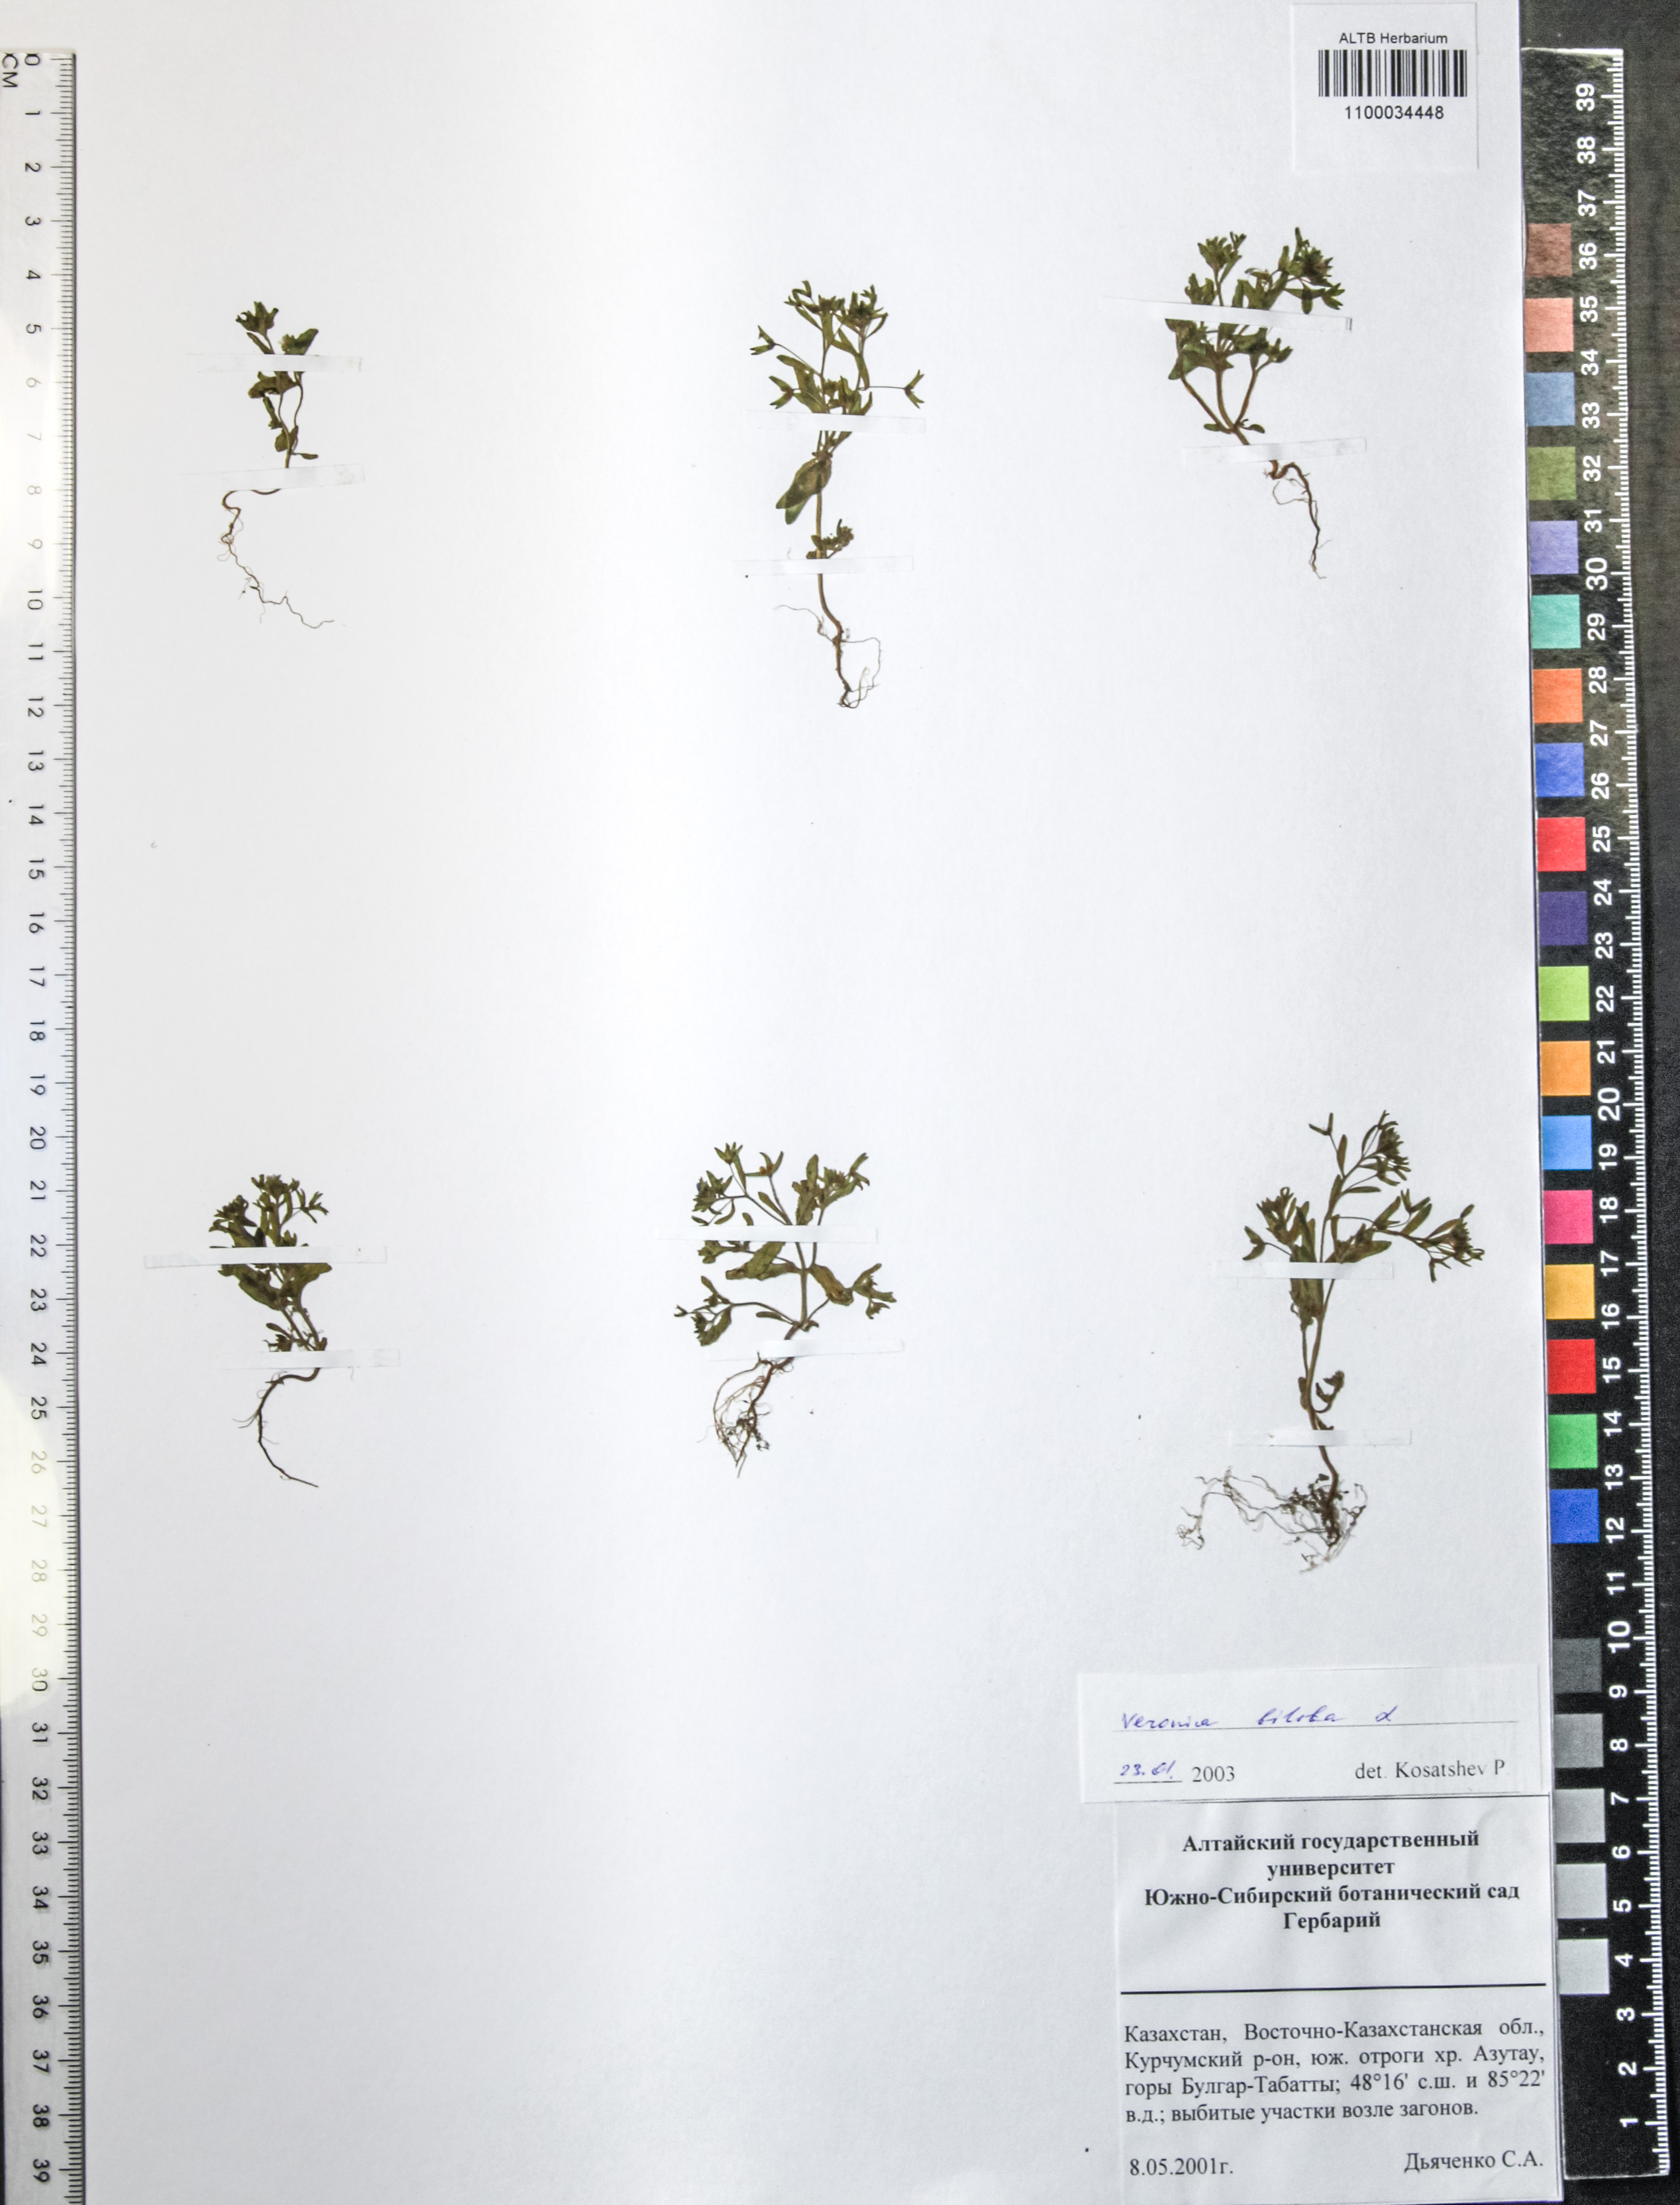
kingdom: Plantae
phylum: Tracheophyta
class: Magnoliopsida
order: Lamiales
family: Plantaginaceae
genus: Veronica
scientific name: Veronica biloba
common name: Twolobe speedwell
